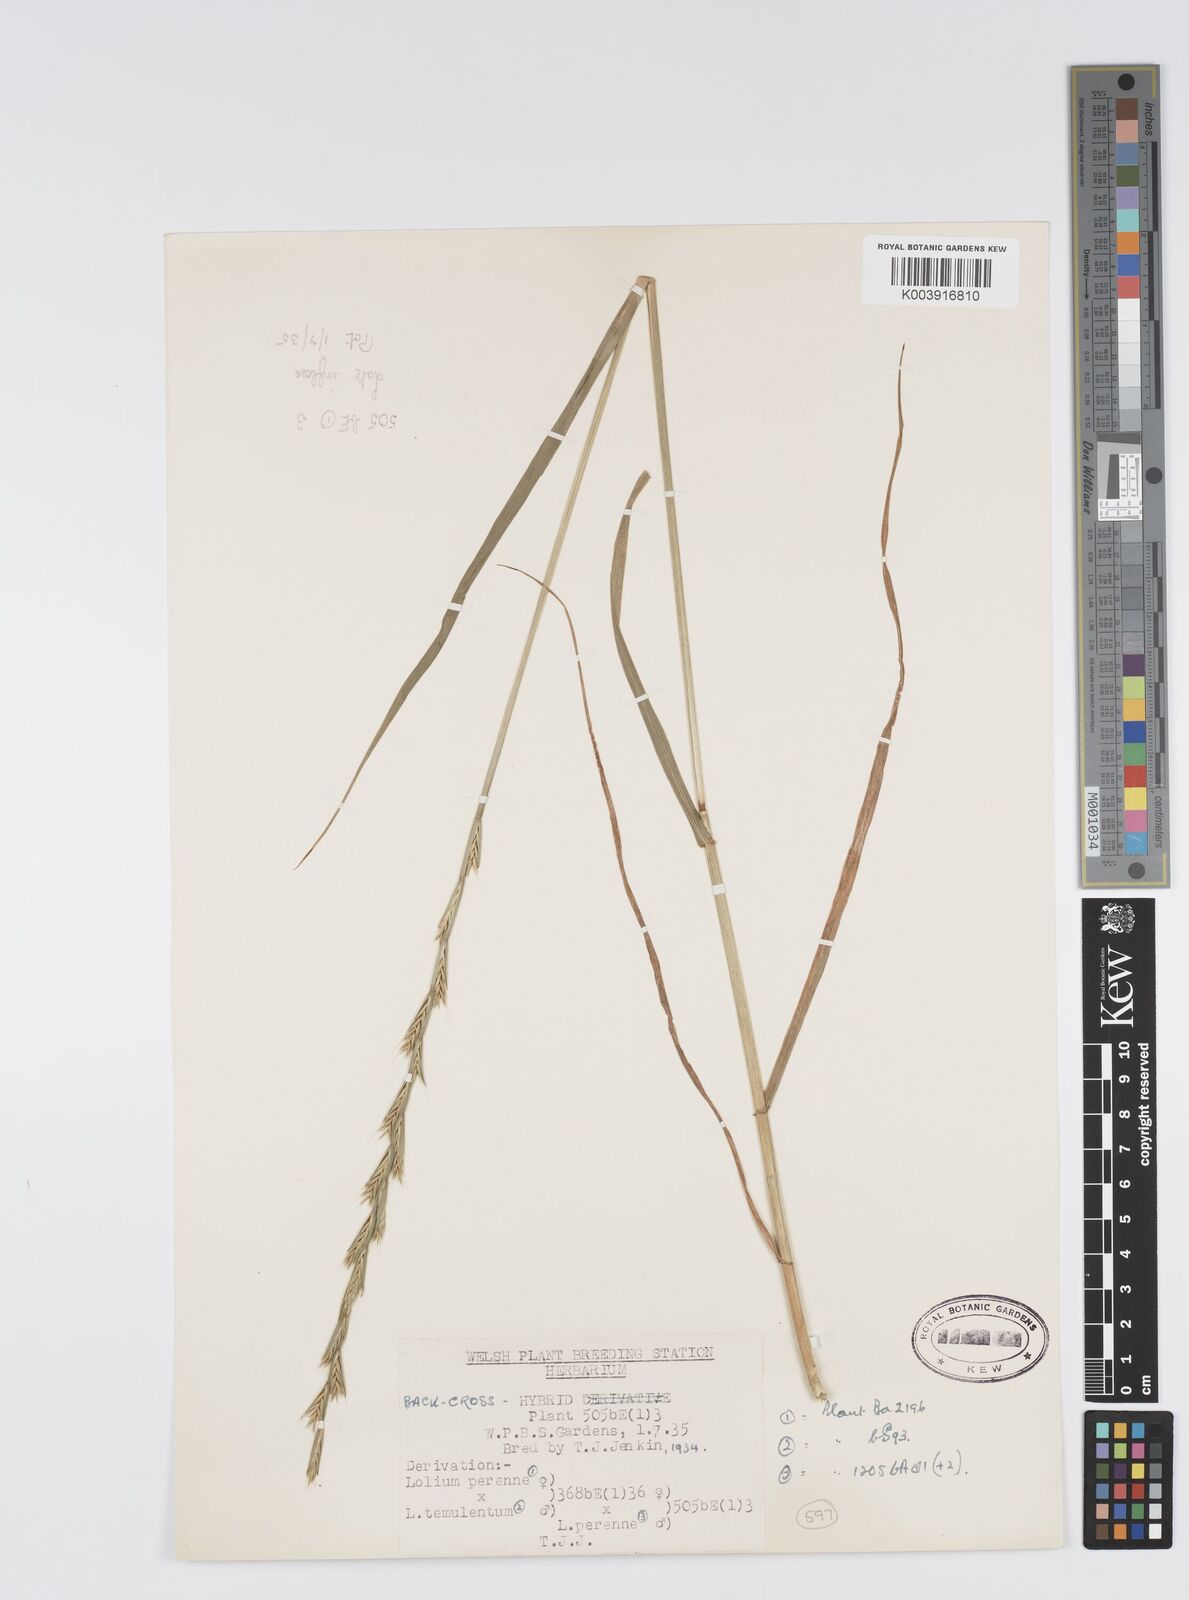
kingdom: Plantae
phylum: Tracheophyta
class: Liliopsida
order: Poales
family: Poaceae
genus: Lolium
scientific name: Lolium perenne
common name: Perennial ryegrass
